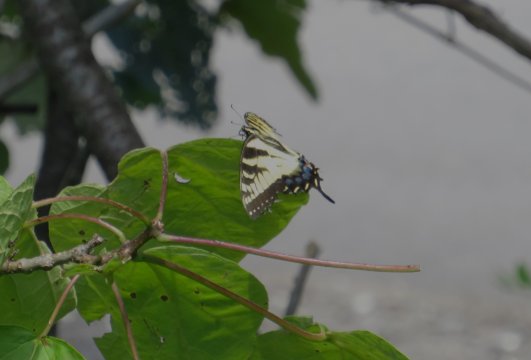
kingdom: Animalia
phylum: Arthropoda
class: Insecta
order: Lepidoptera
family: Papilionidae
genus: Pterourus
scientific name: Pterourus glaucus
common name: Eastern Tiger Swallowtail
